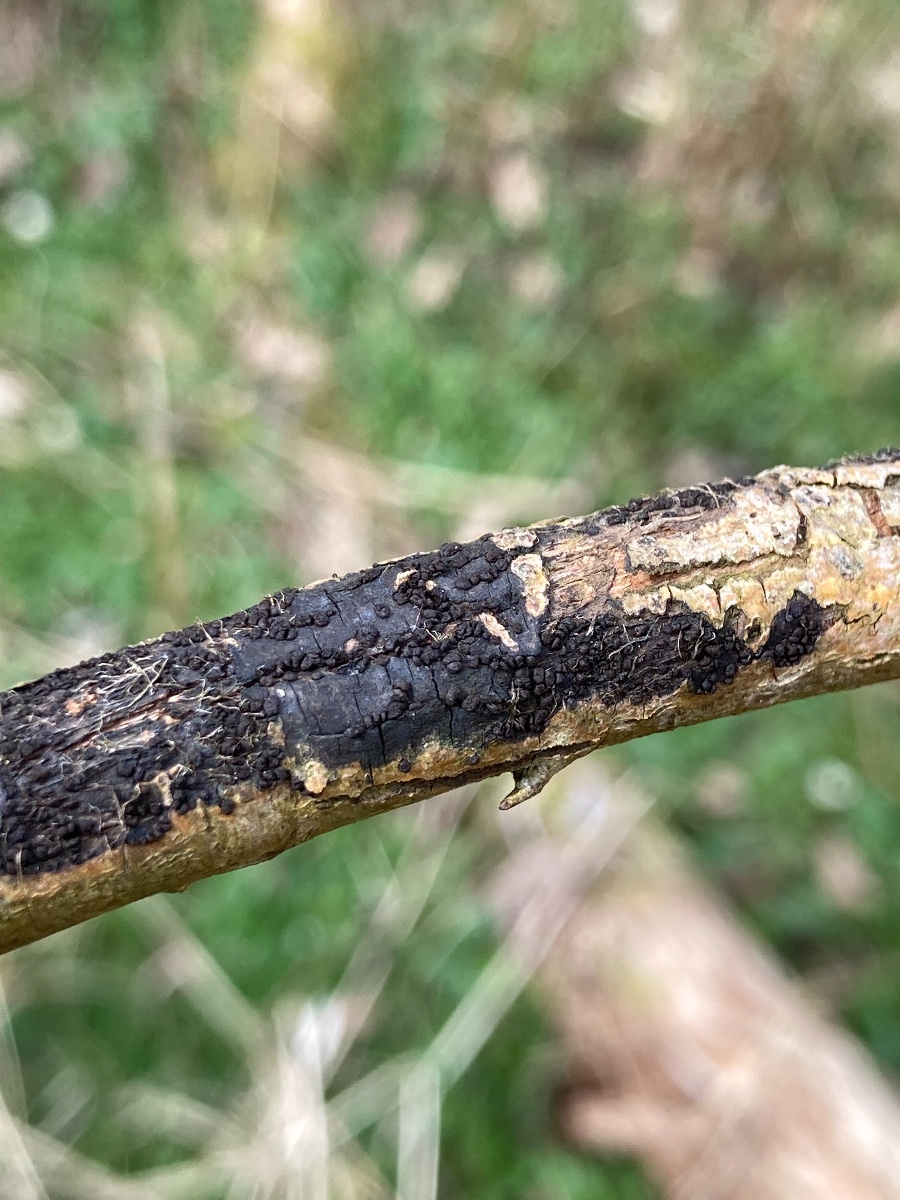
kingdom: Fungi
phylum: Ascomycota
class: Leotiomycetes
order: Helotiales
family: Godroniaceae
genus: Godronia
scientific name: Godronia fuliginosa
